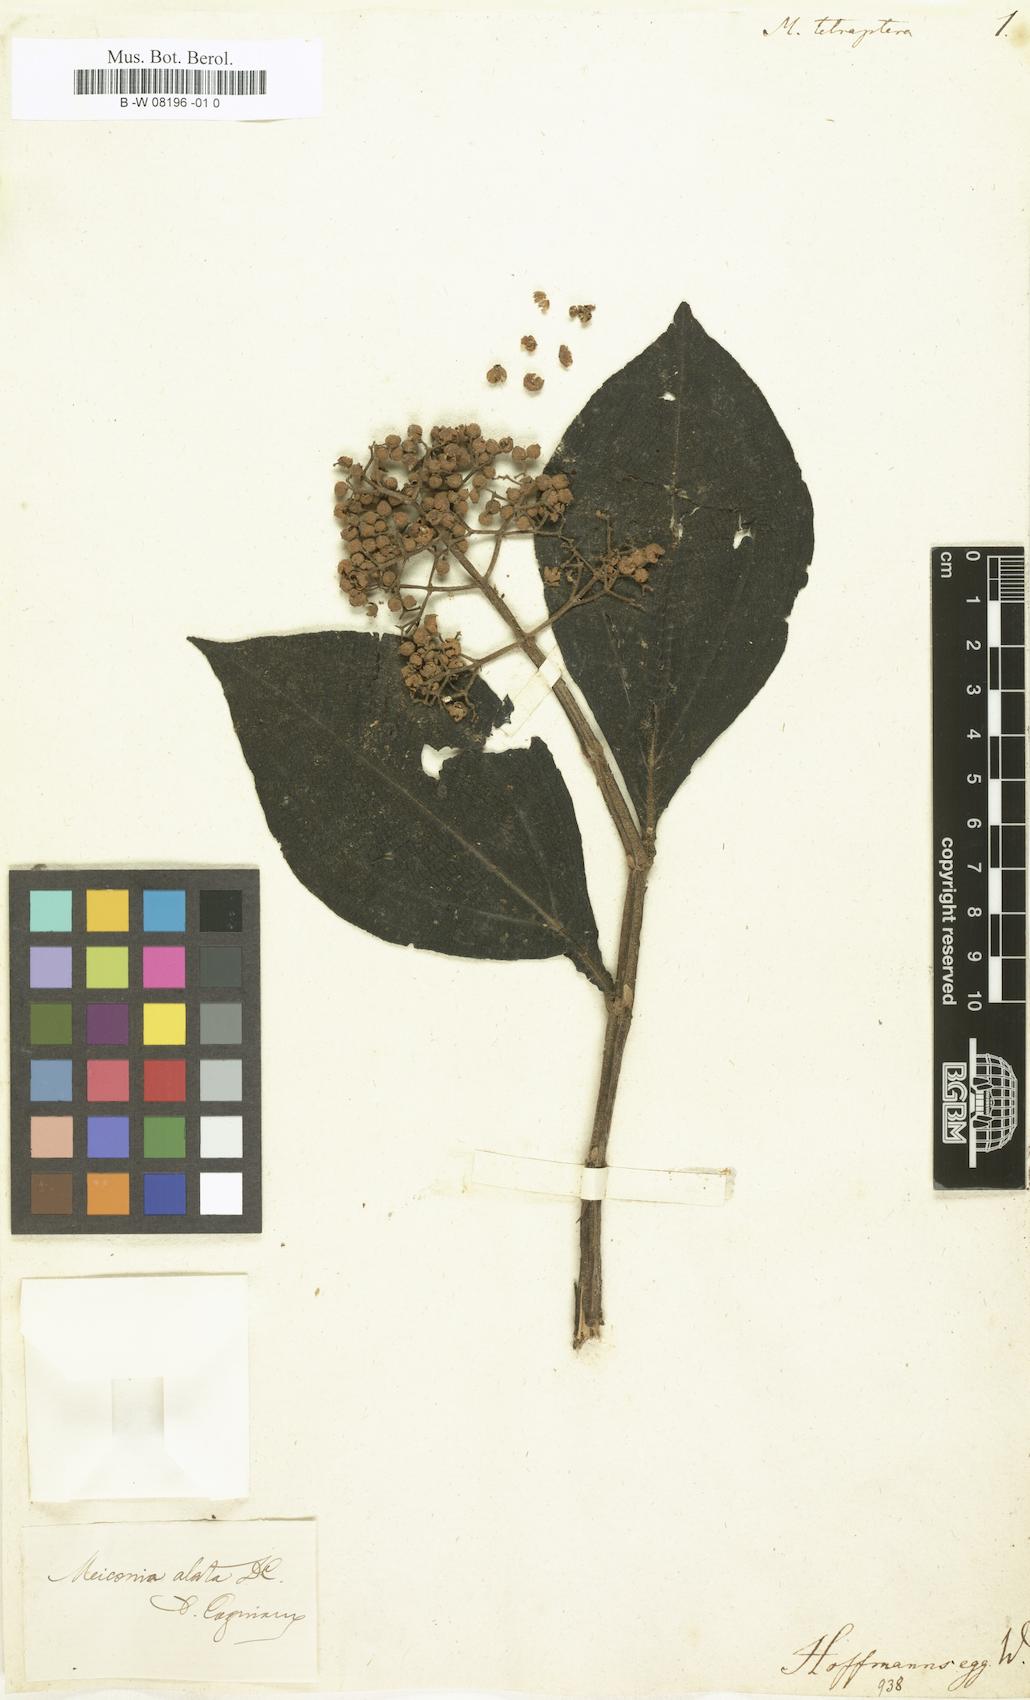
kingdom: Plantae
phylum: Tracheophyta
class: Magnoliopsida
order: Myrtales
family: Melastomataceae
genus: Melastoma
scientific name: Melastoma tetramerum
